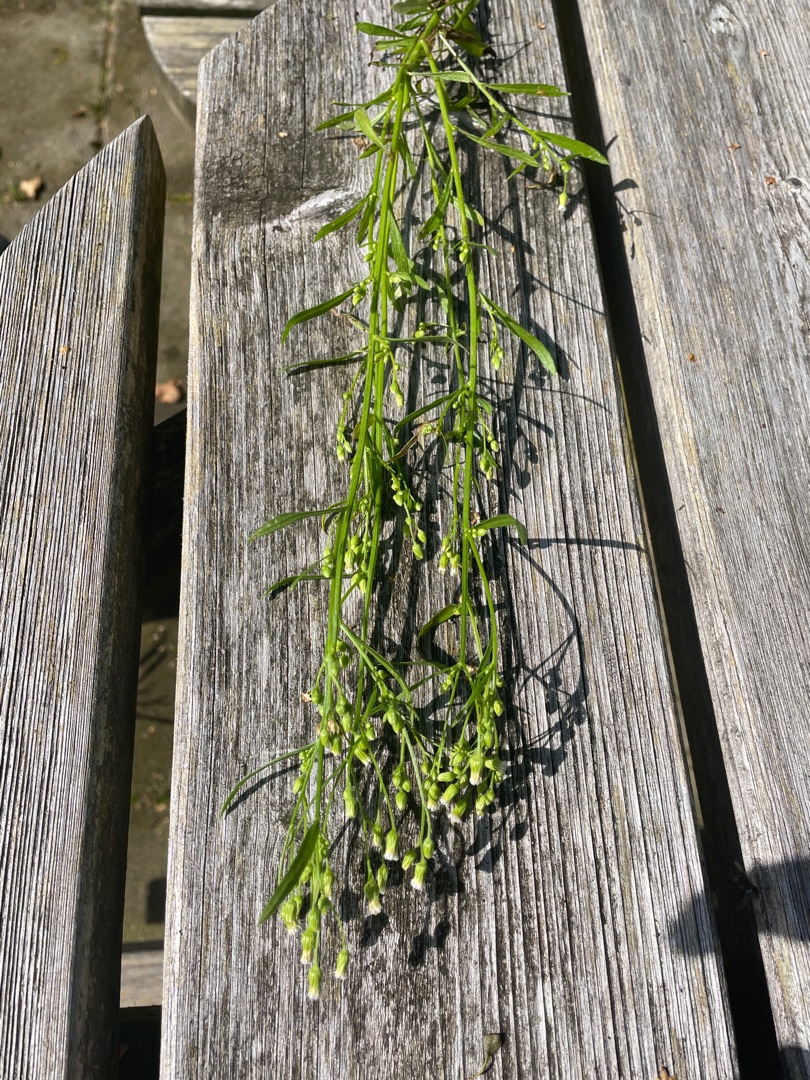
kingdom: Plantae
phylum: Tracheophyta
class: Magnoliopsida
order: Asterales
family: Asteraceae
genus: Erigeron
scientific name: Erigeron canadensis
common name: Kanadisk bakkestjerne
